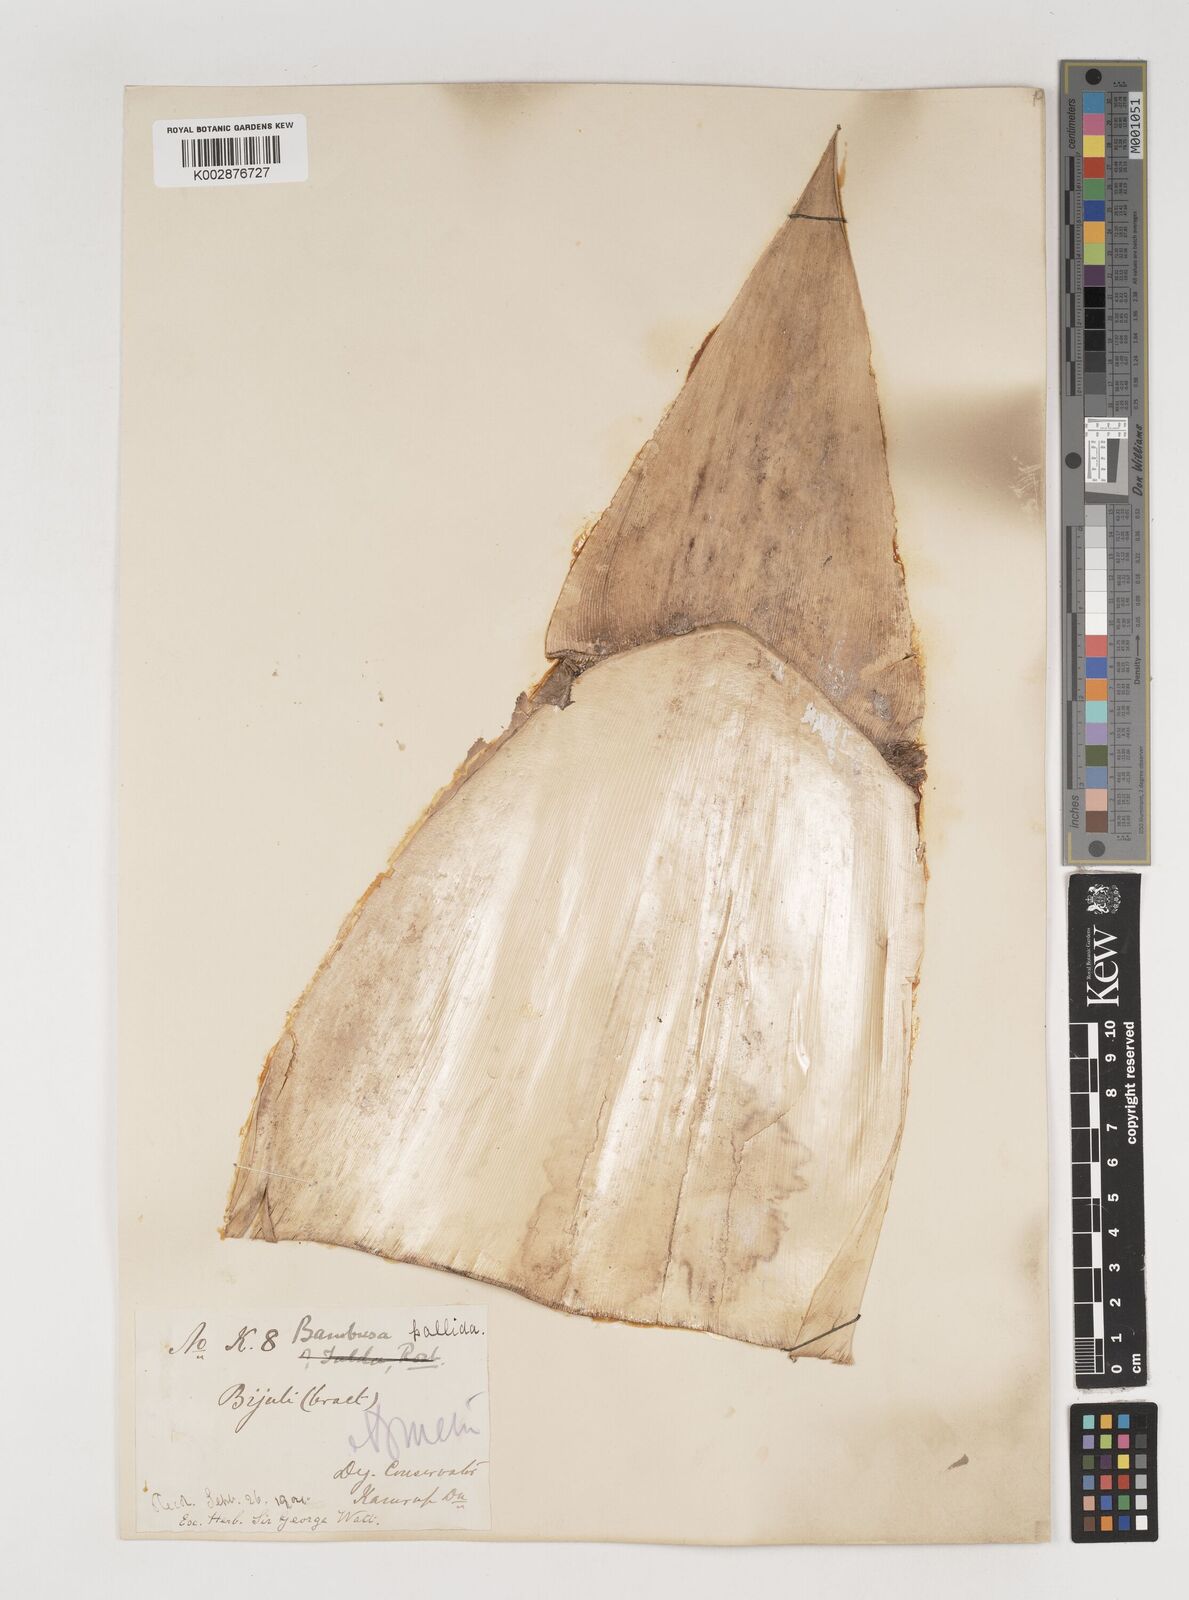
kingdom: Plantae
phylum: Tracheophyta
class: Liliopsida
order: Poales
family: Poaceae
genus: Bambusa
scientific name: Bambusa pallida
